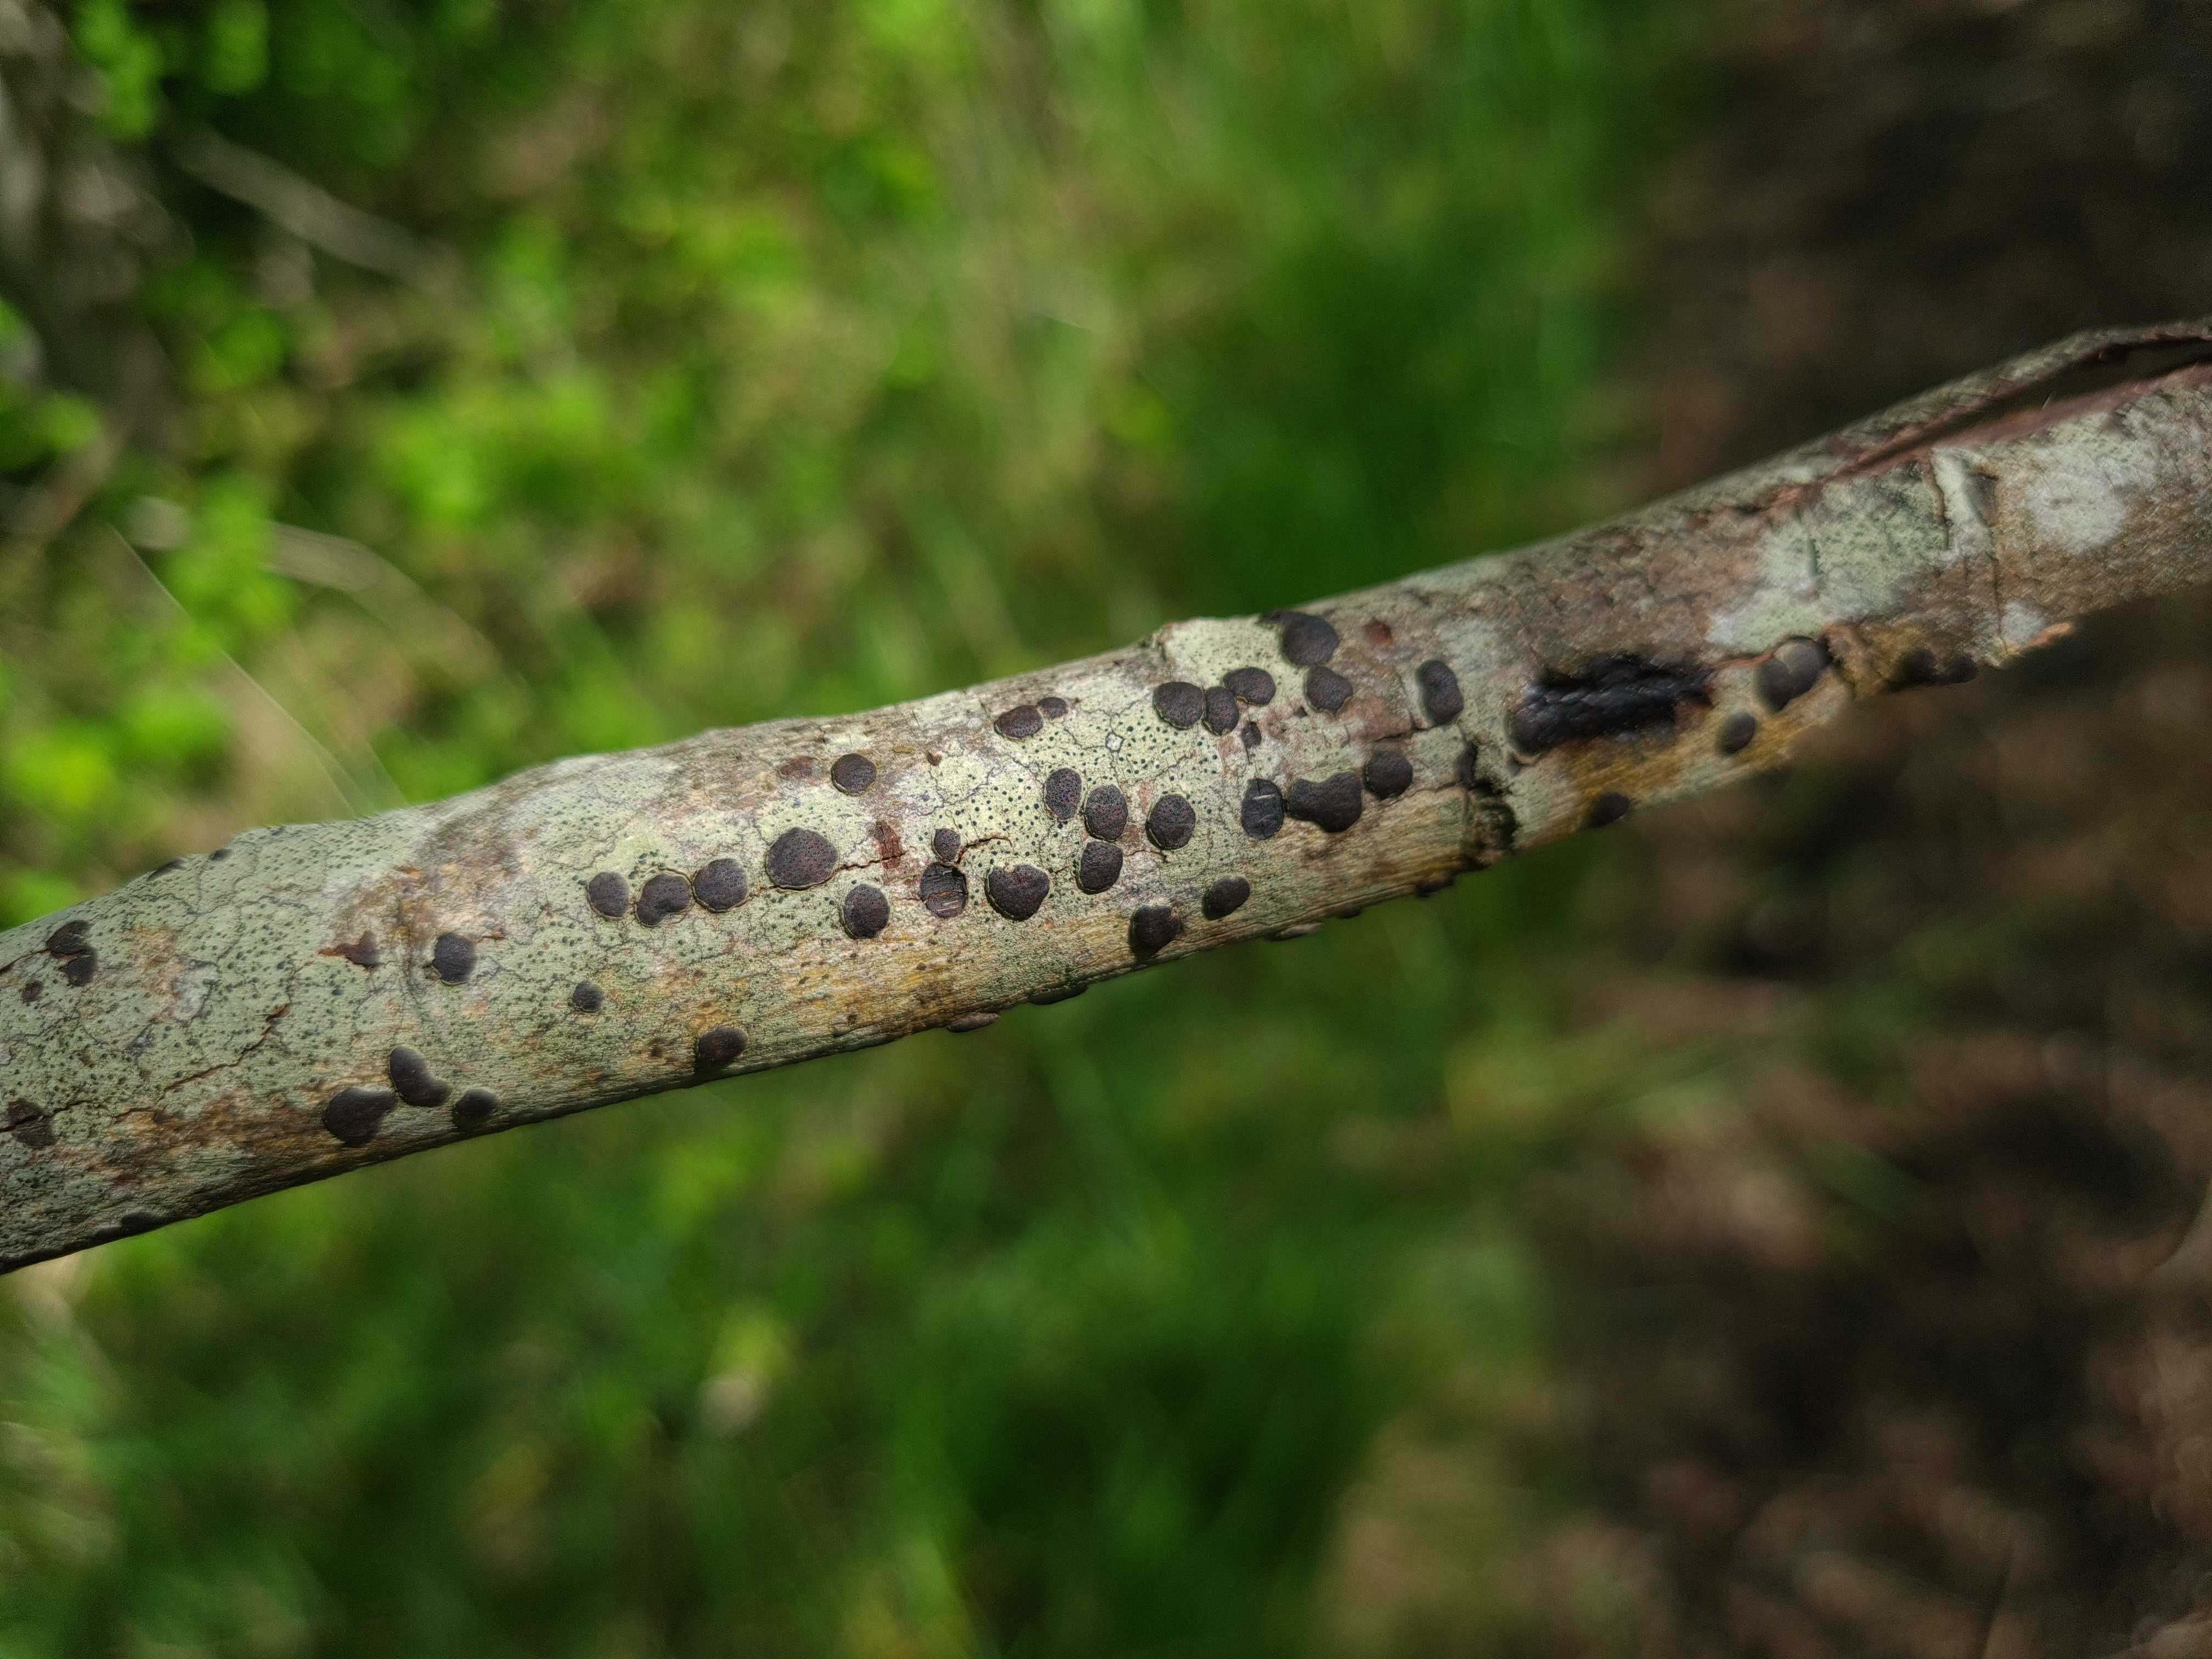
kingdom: Fungi
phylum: Ascomycota
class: Sordariomycetes
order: Xylariales
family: Diatrypaceae
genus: Diatrype
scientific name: Diatrype bullata
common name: pile-kulskorpe
